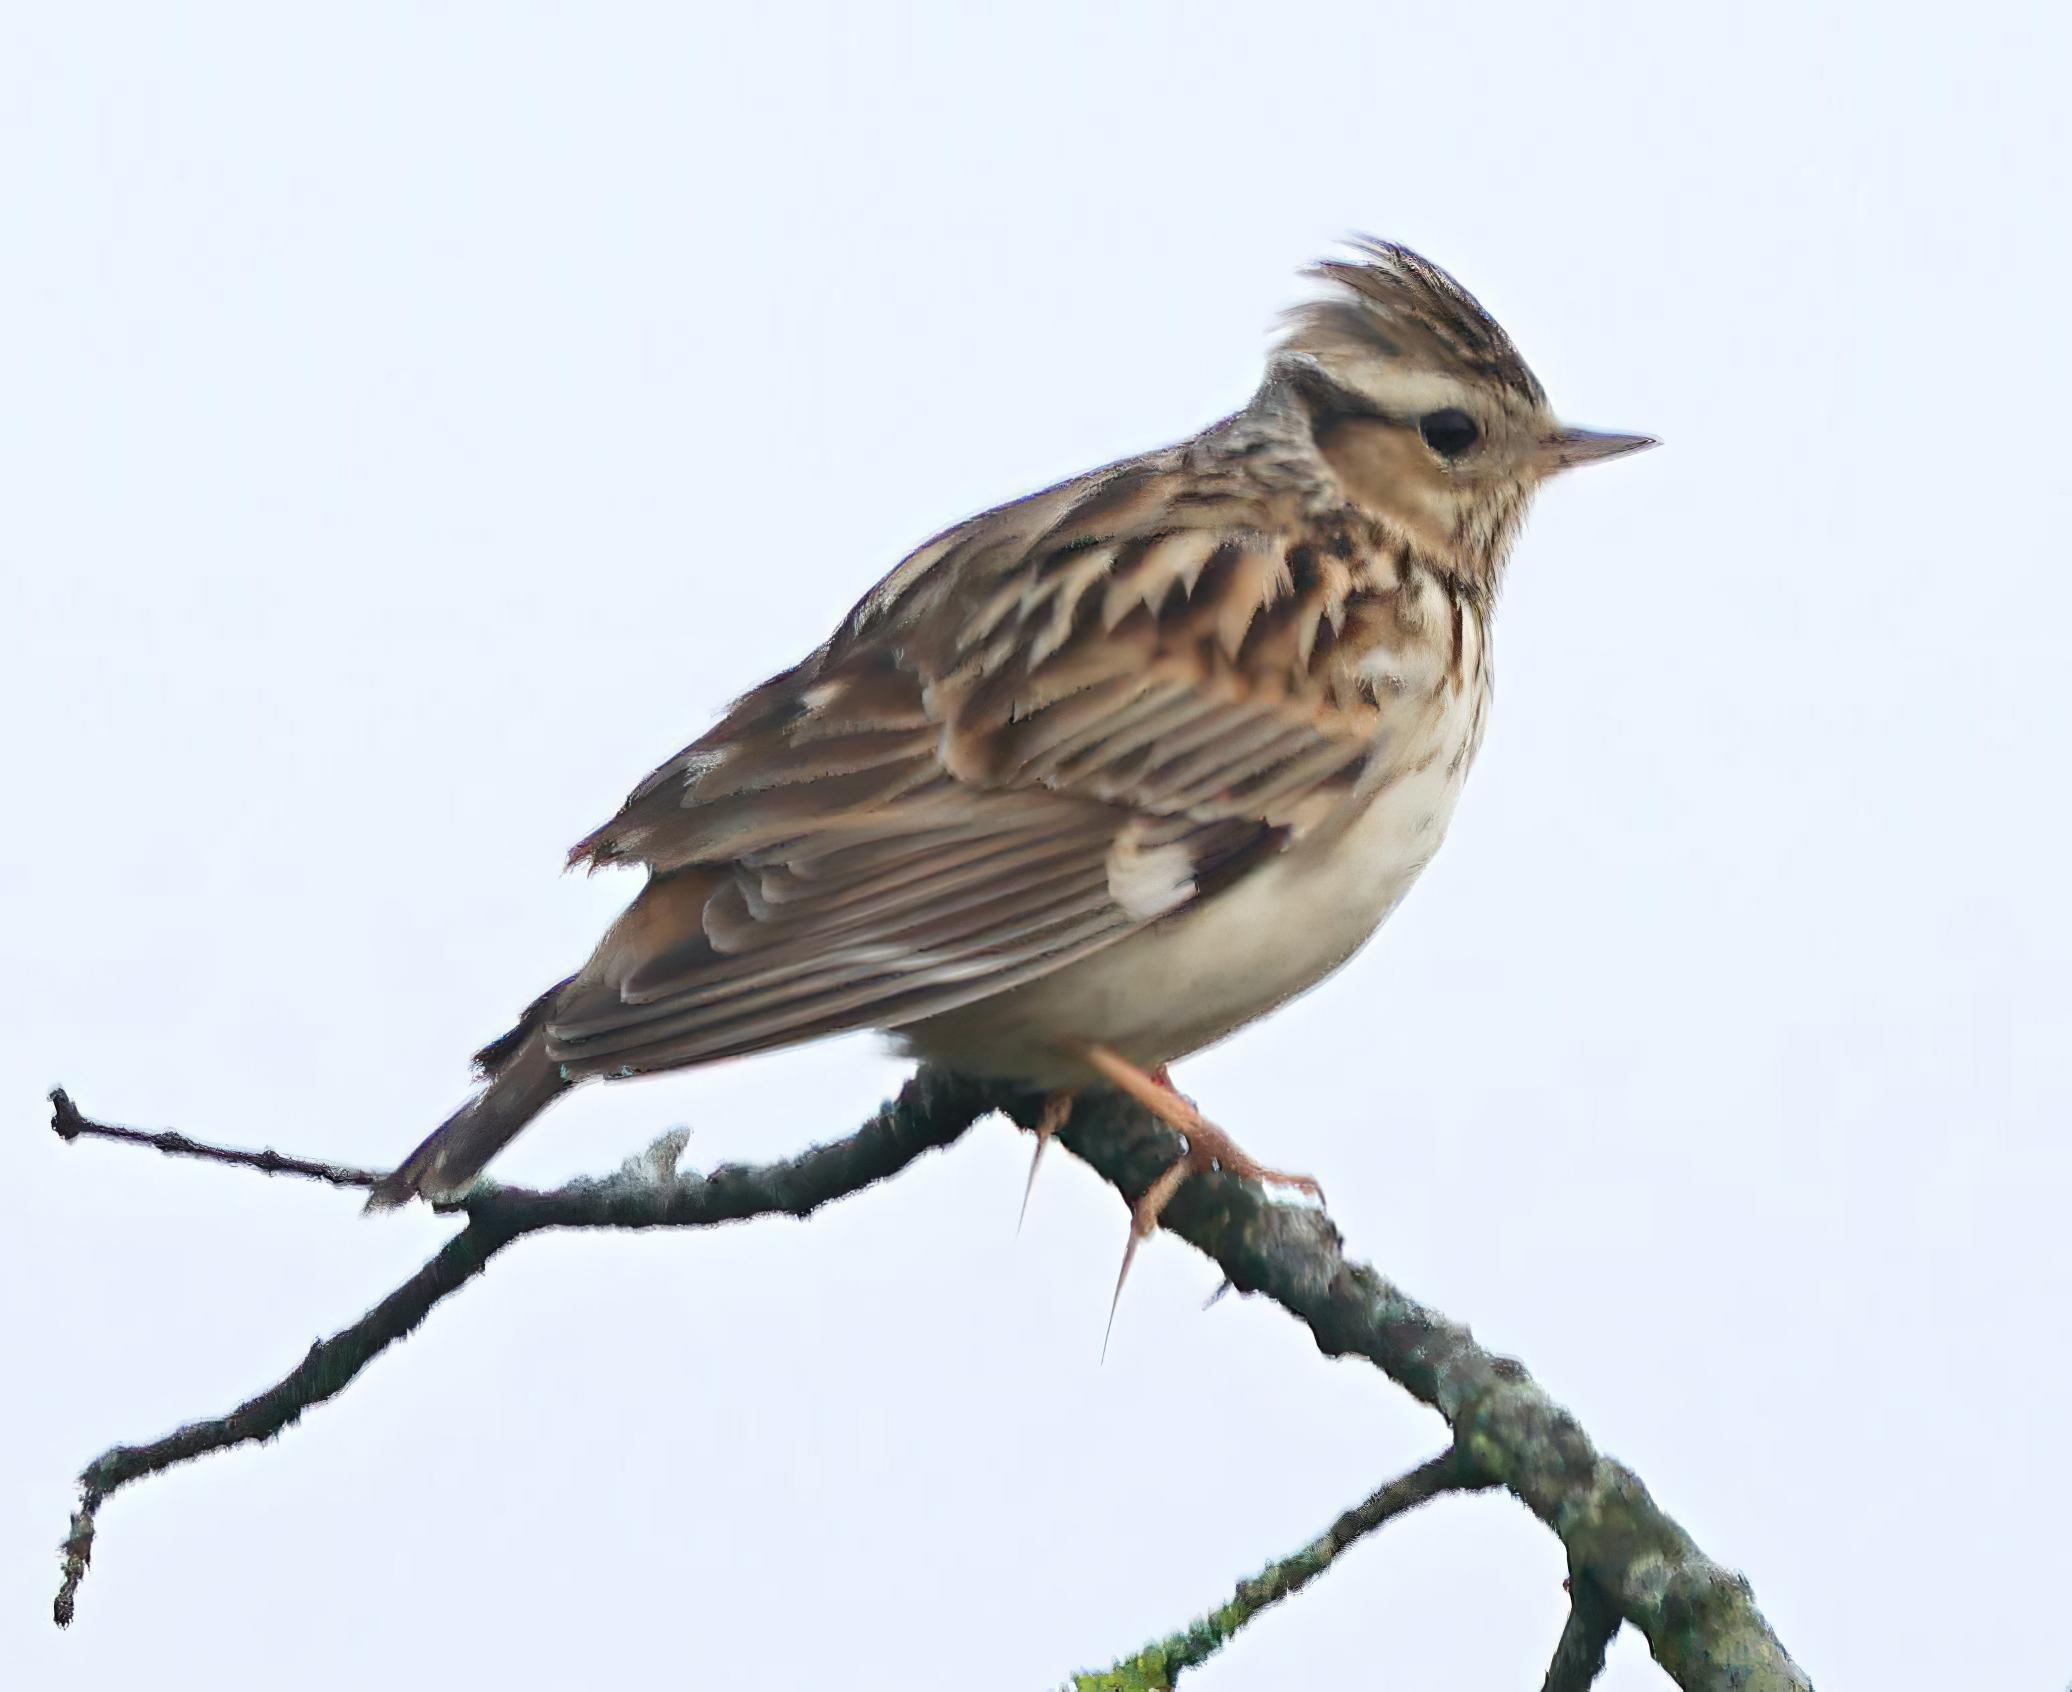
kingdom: Animalia
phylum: Chordata
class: Aves
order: Passeriformes
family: Alaudidae
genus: Lullula
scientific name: Lullula arborea
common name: Hedelærke
